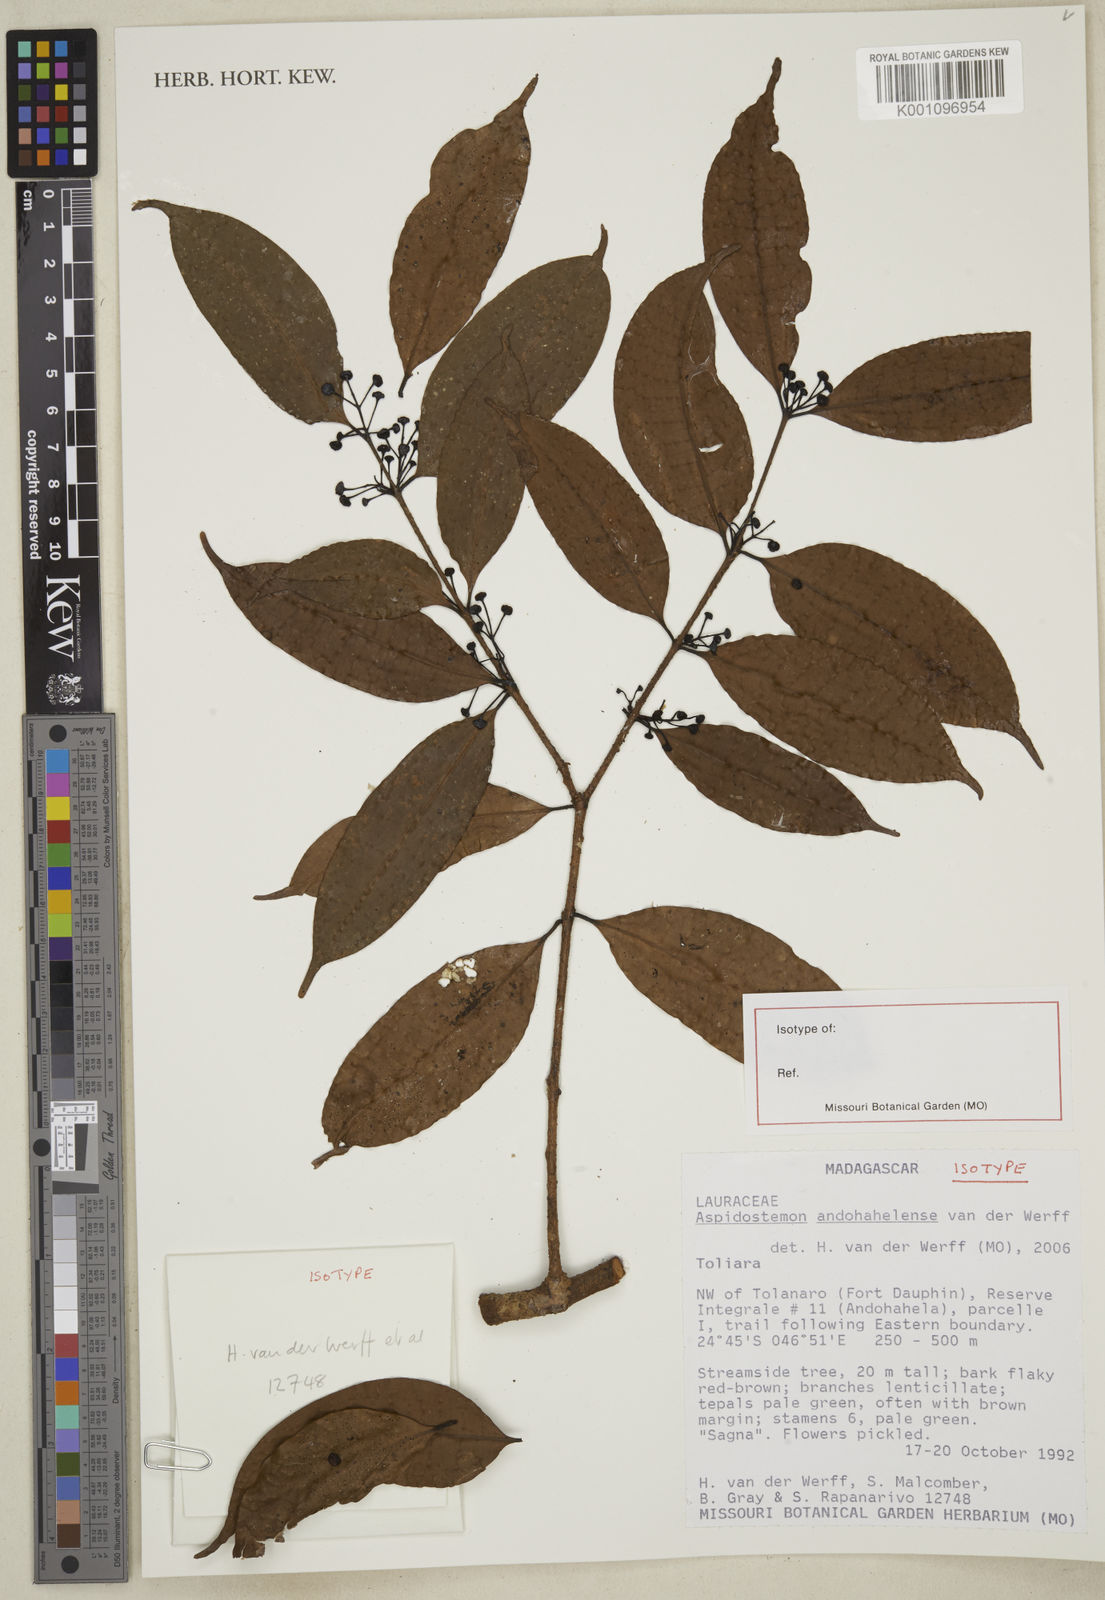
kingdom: Plantae
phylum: Tracheophyta
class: Magnoliopsida
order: Laurales
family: Lauraceae
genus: Aspidostemon
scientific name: Aspidostemon andohahelensis
